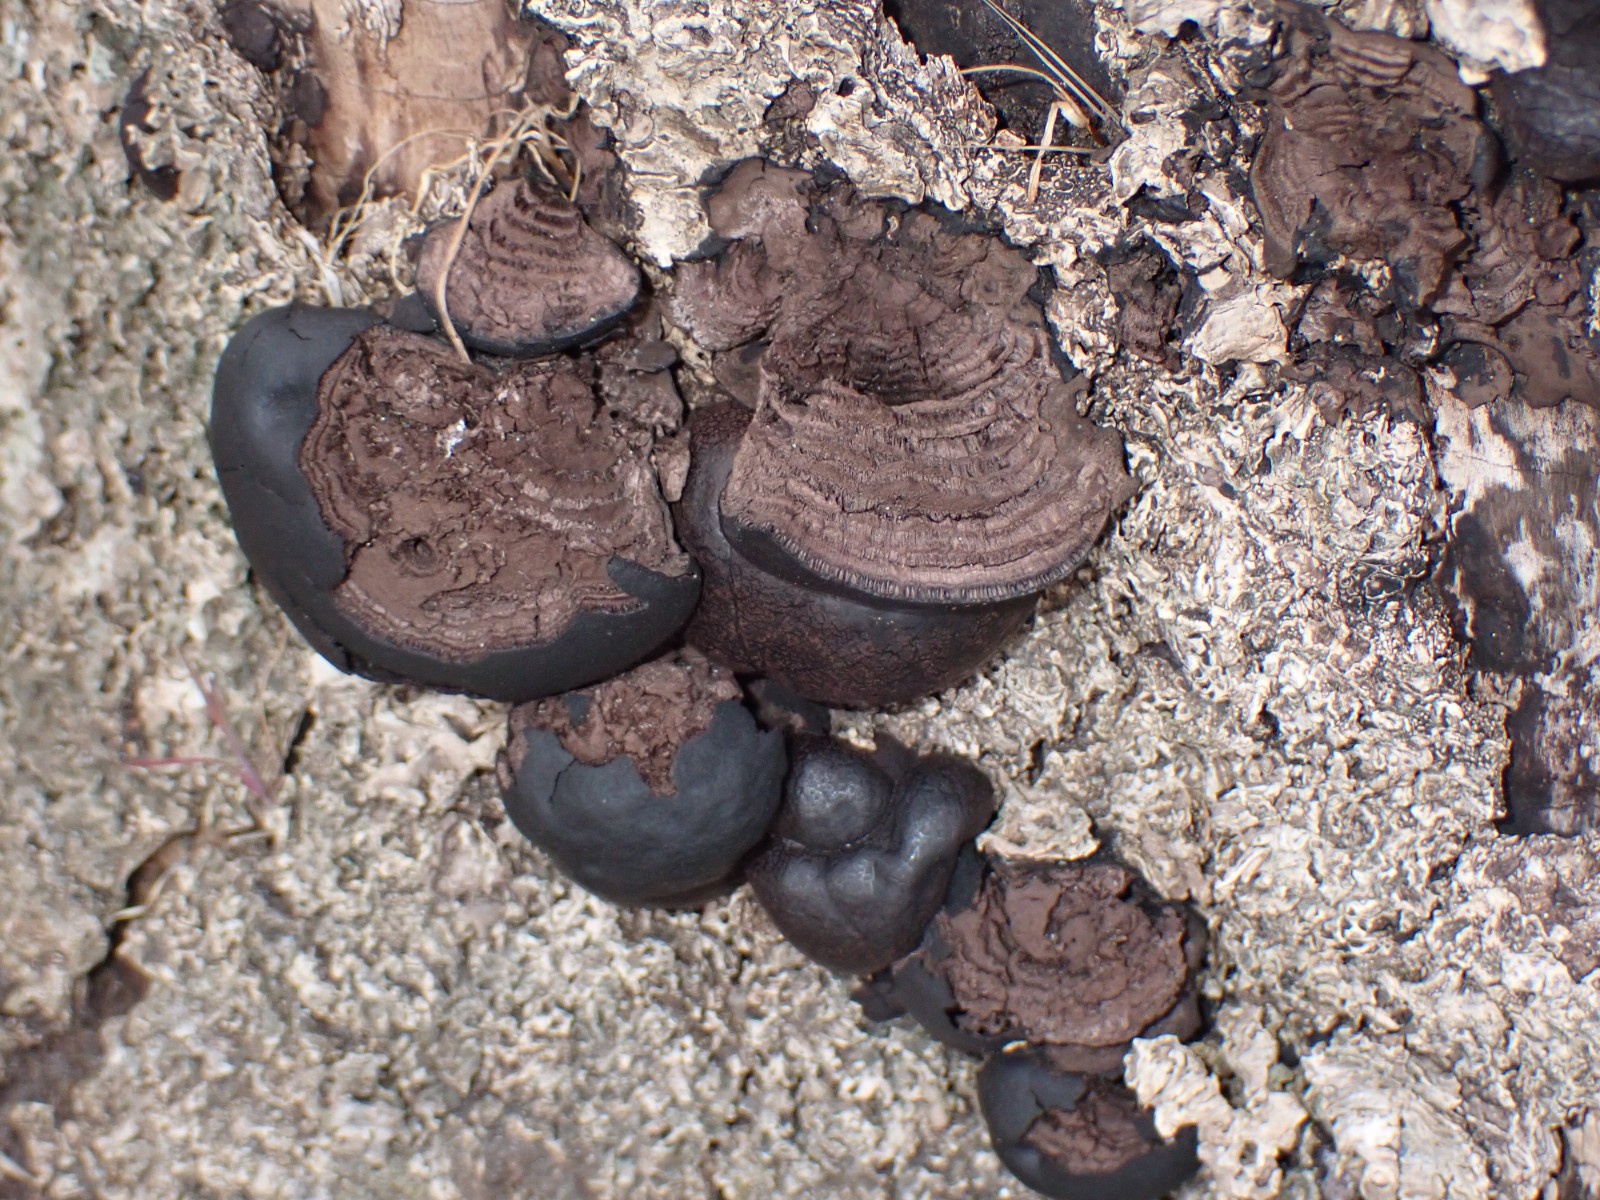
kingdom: Fungi
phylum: Ascomycota
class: Sordariomycetes
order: Xylariales
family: Hypoxylaceae
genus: Daldinia
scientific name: Daldinia concentrica
